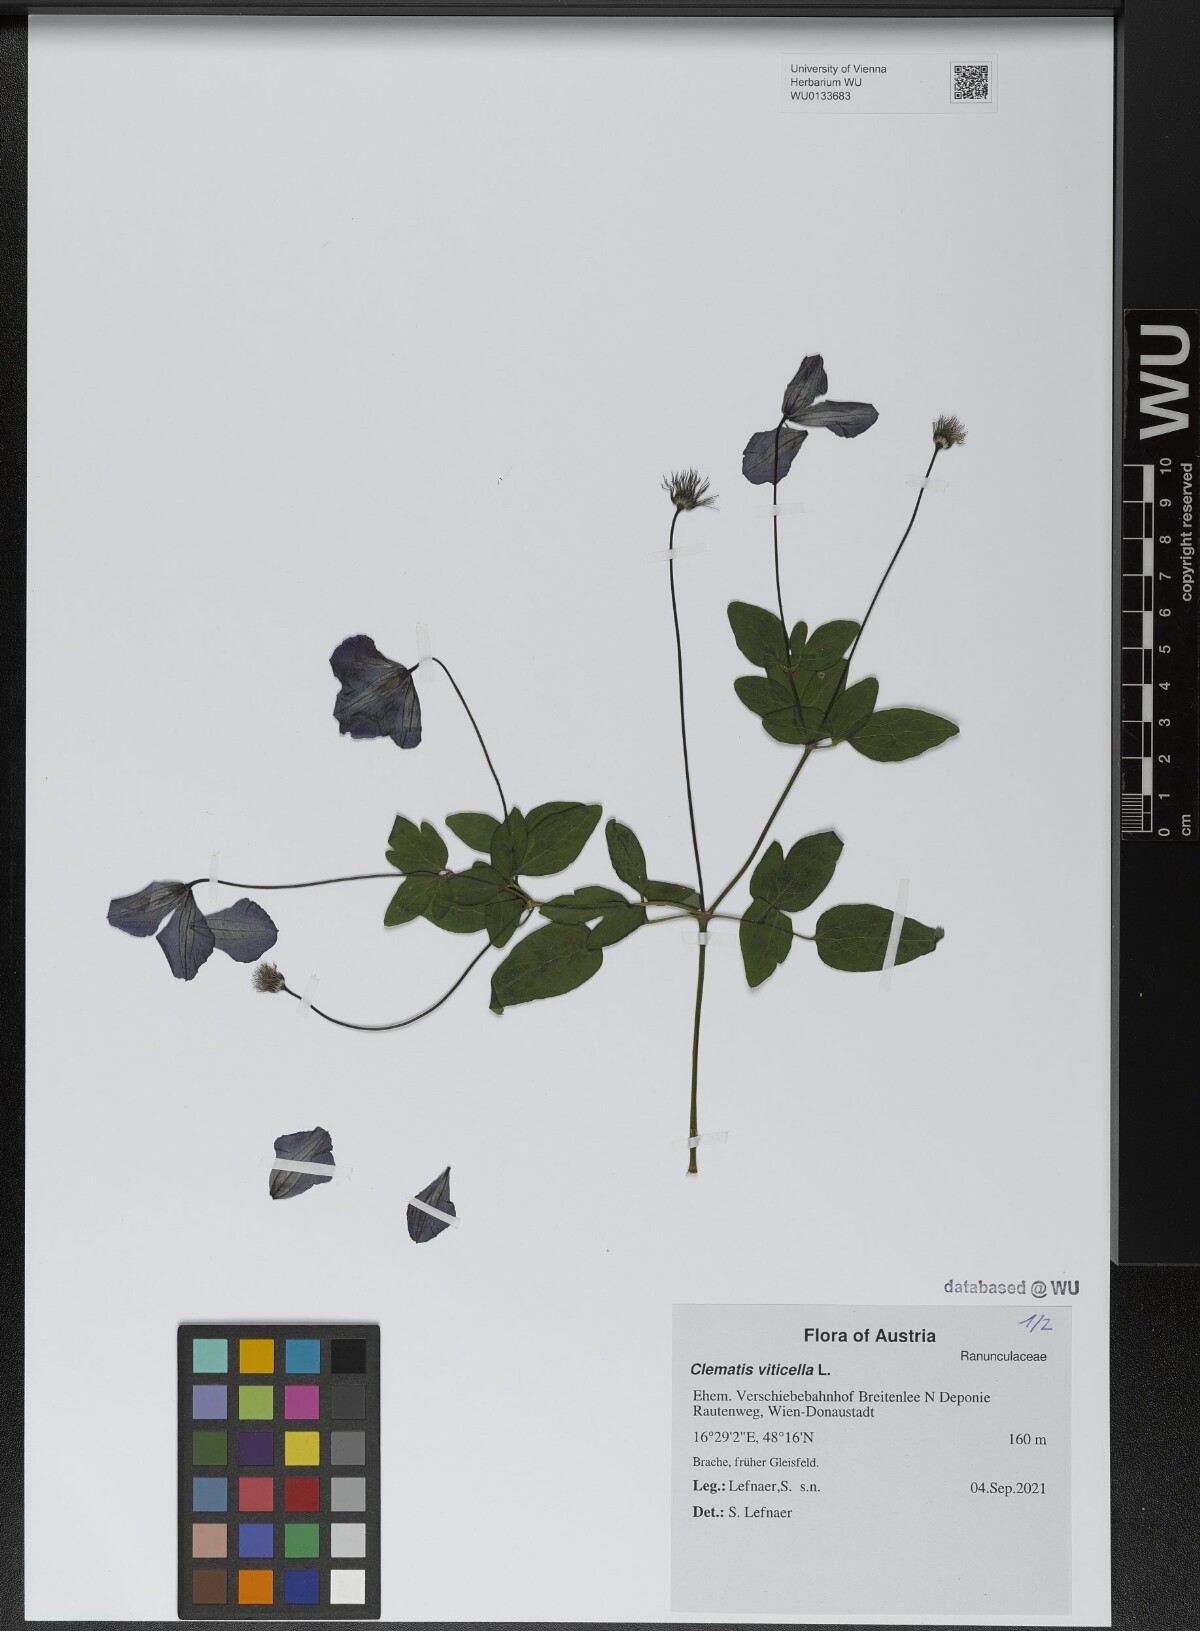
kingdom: Plantae
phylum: Tracheophyta
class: Magnoliopsida
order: Ranunculales
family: Ranunculaceae
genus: Clematis
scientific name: Clematis viticella
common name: Purple clematis
